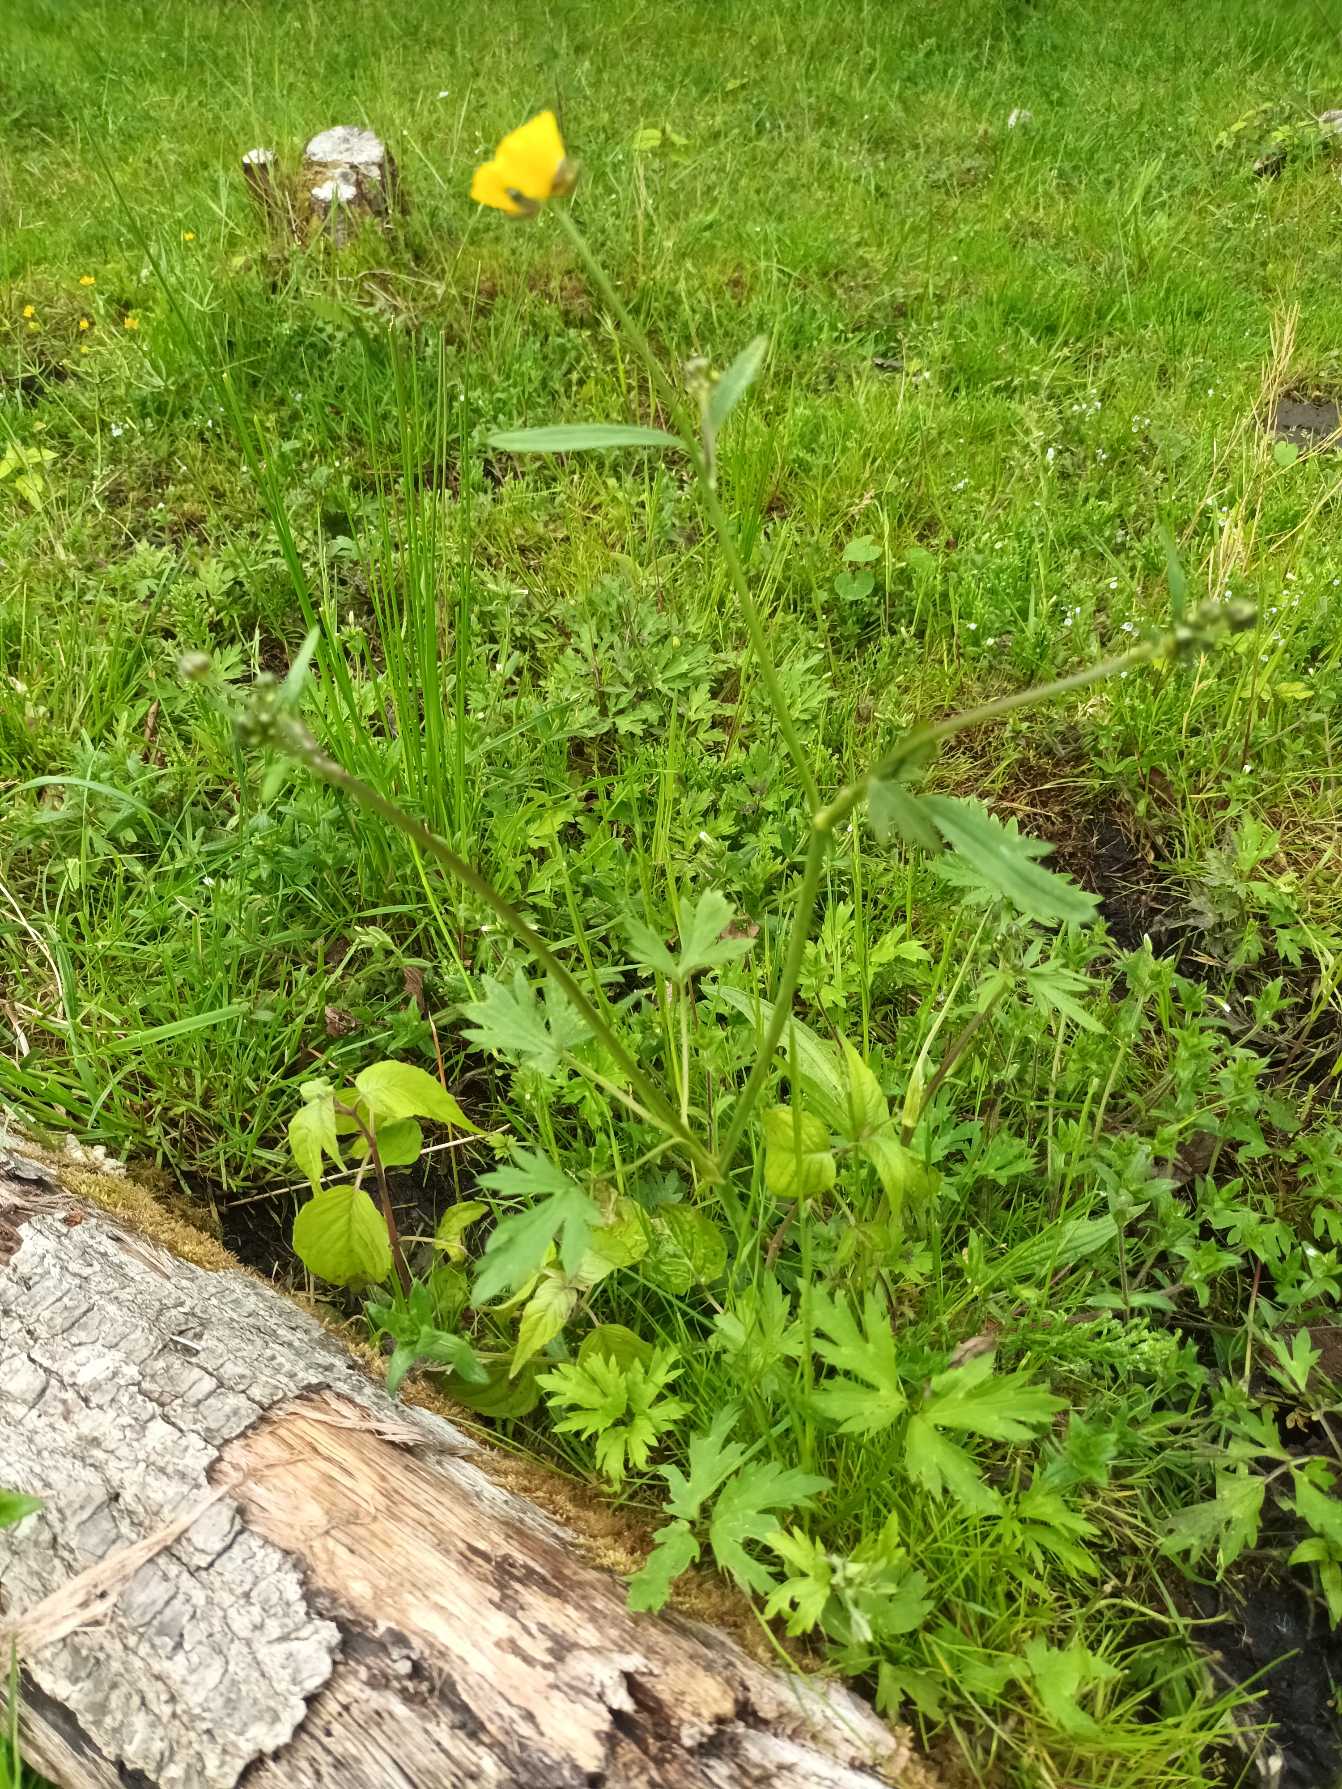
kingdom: Plantae
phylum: Tracheophyta
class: Magnoliopsida
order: Ranunculales
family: Ranunculaceae
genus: Ranunculus
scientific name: Ranunculus acris
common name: Bidende ranunkel
